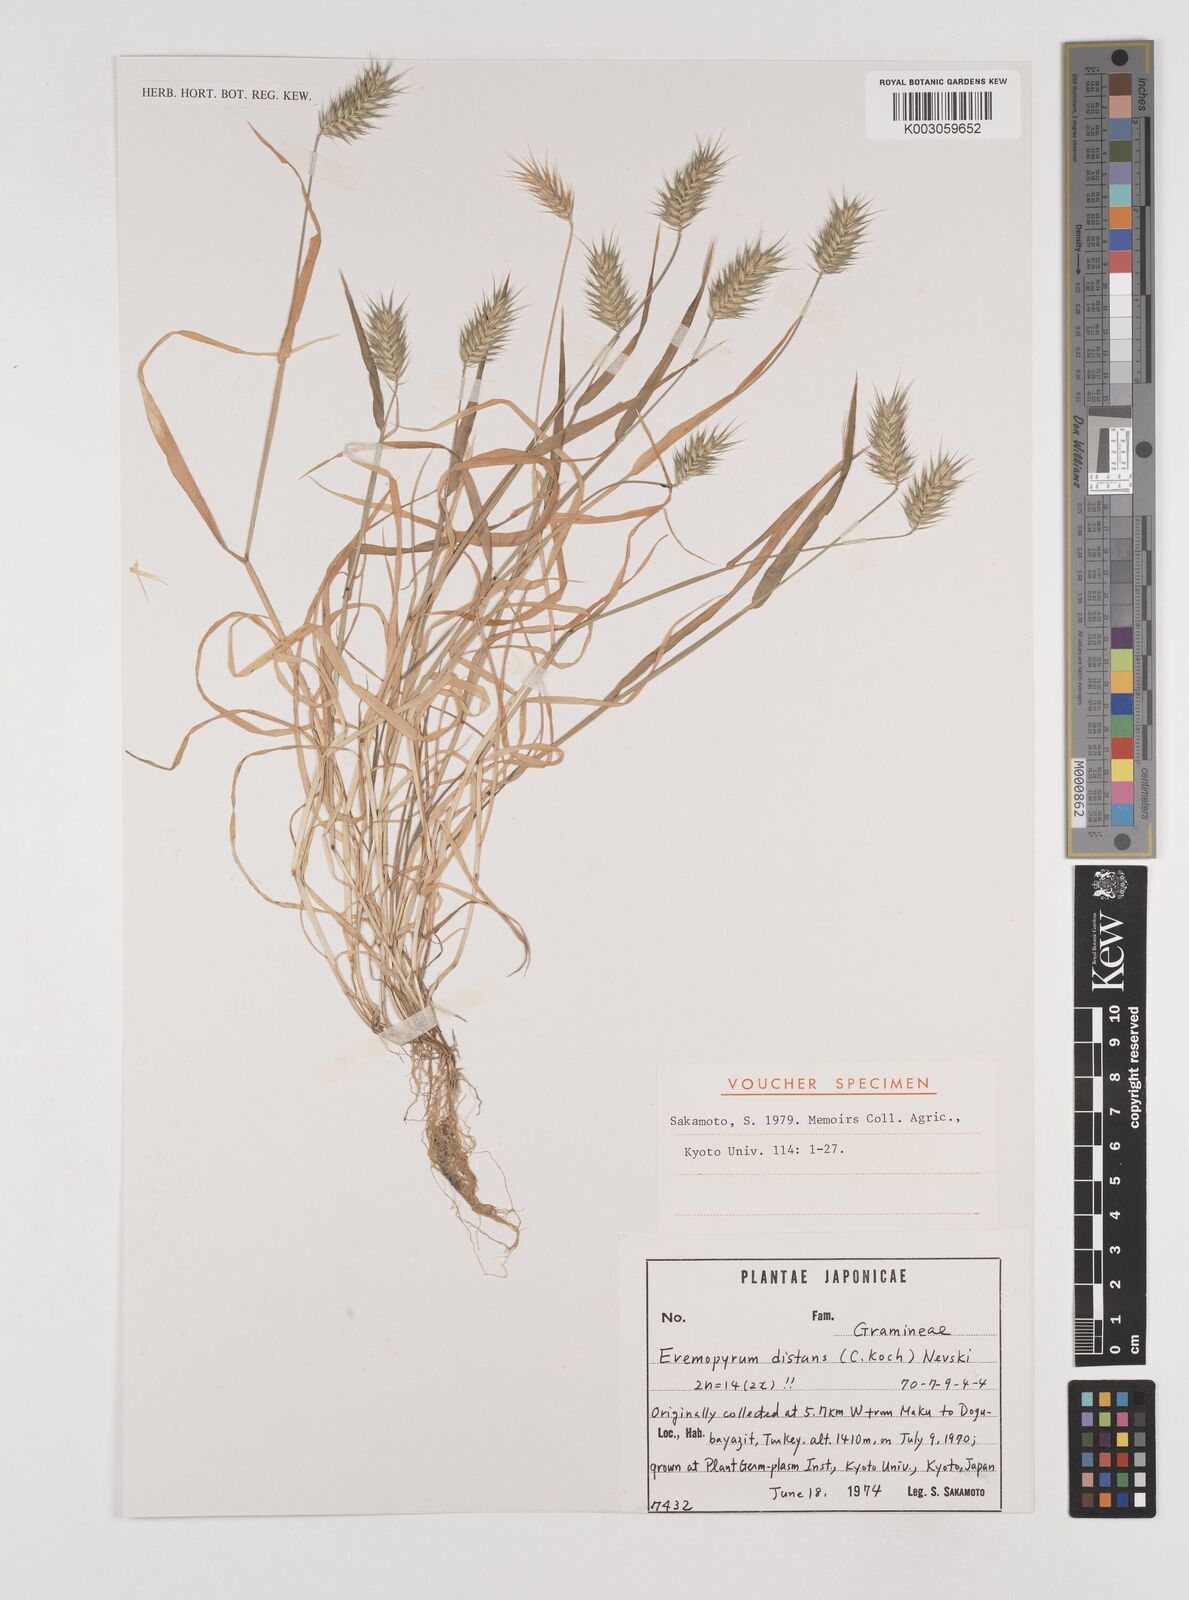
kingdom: Plantae
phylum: Tracheophyta
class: Liliopsida
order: Poales
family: Poaceae
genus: Eremopyrum
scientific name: Eremopyrum distans
